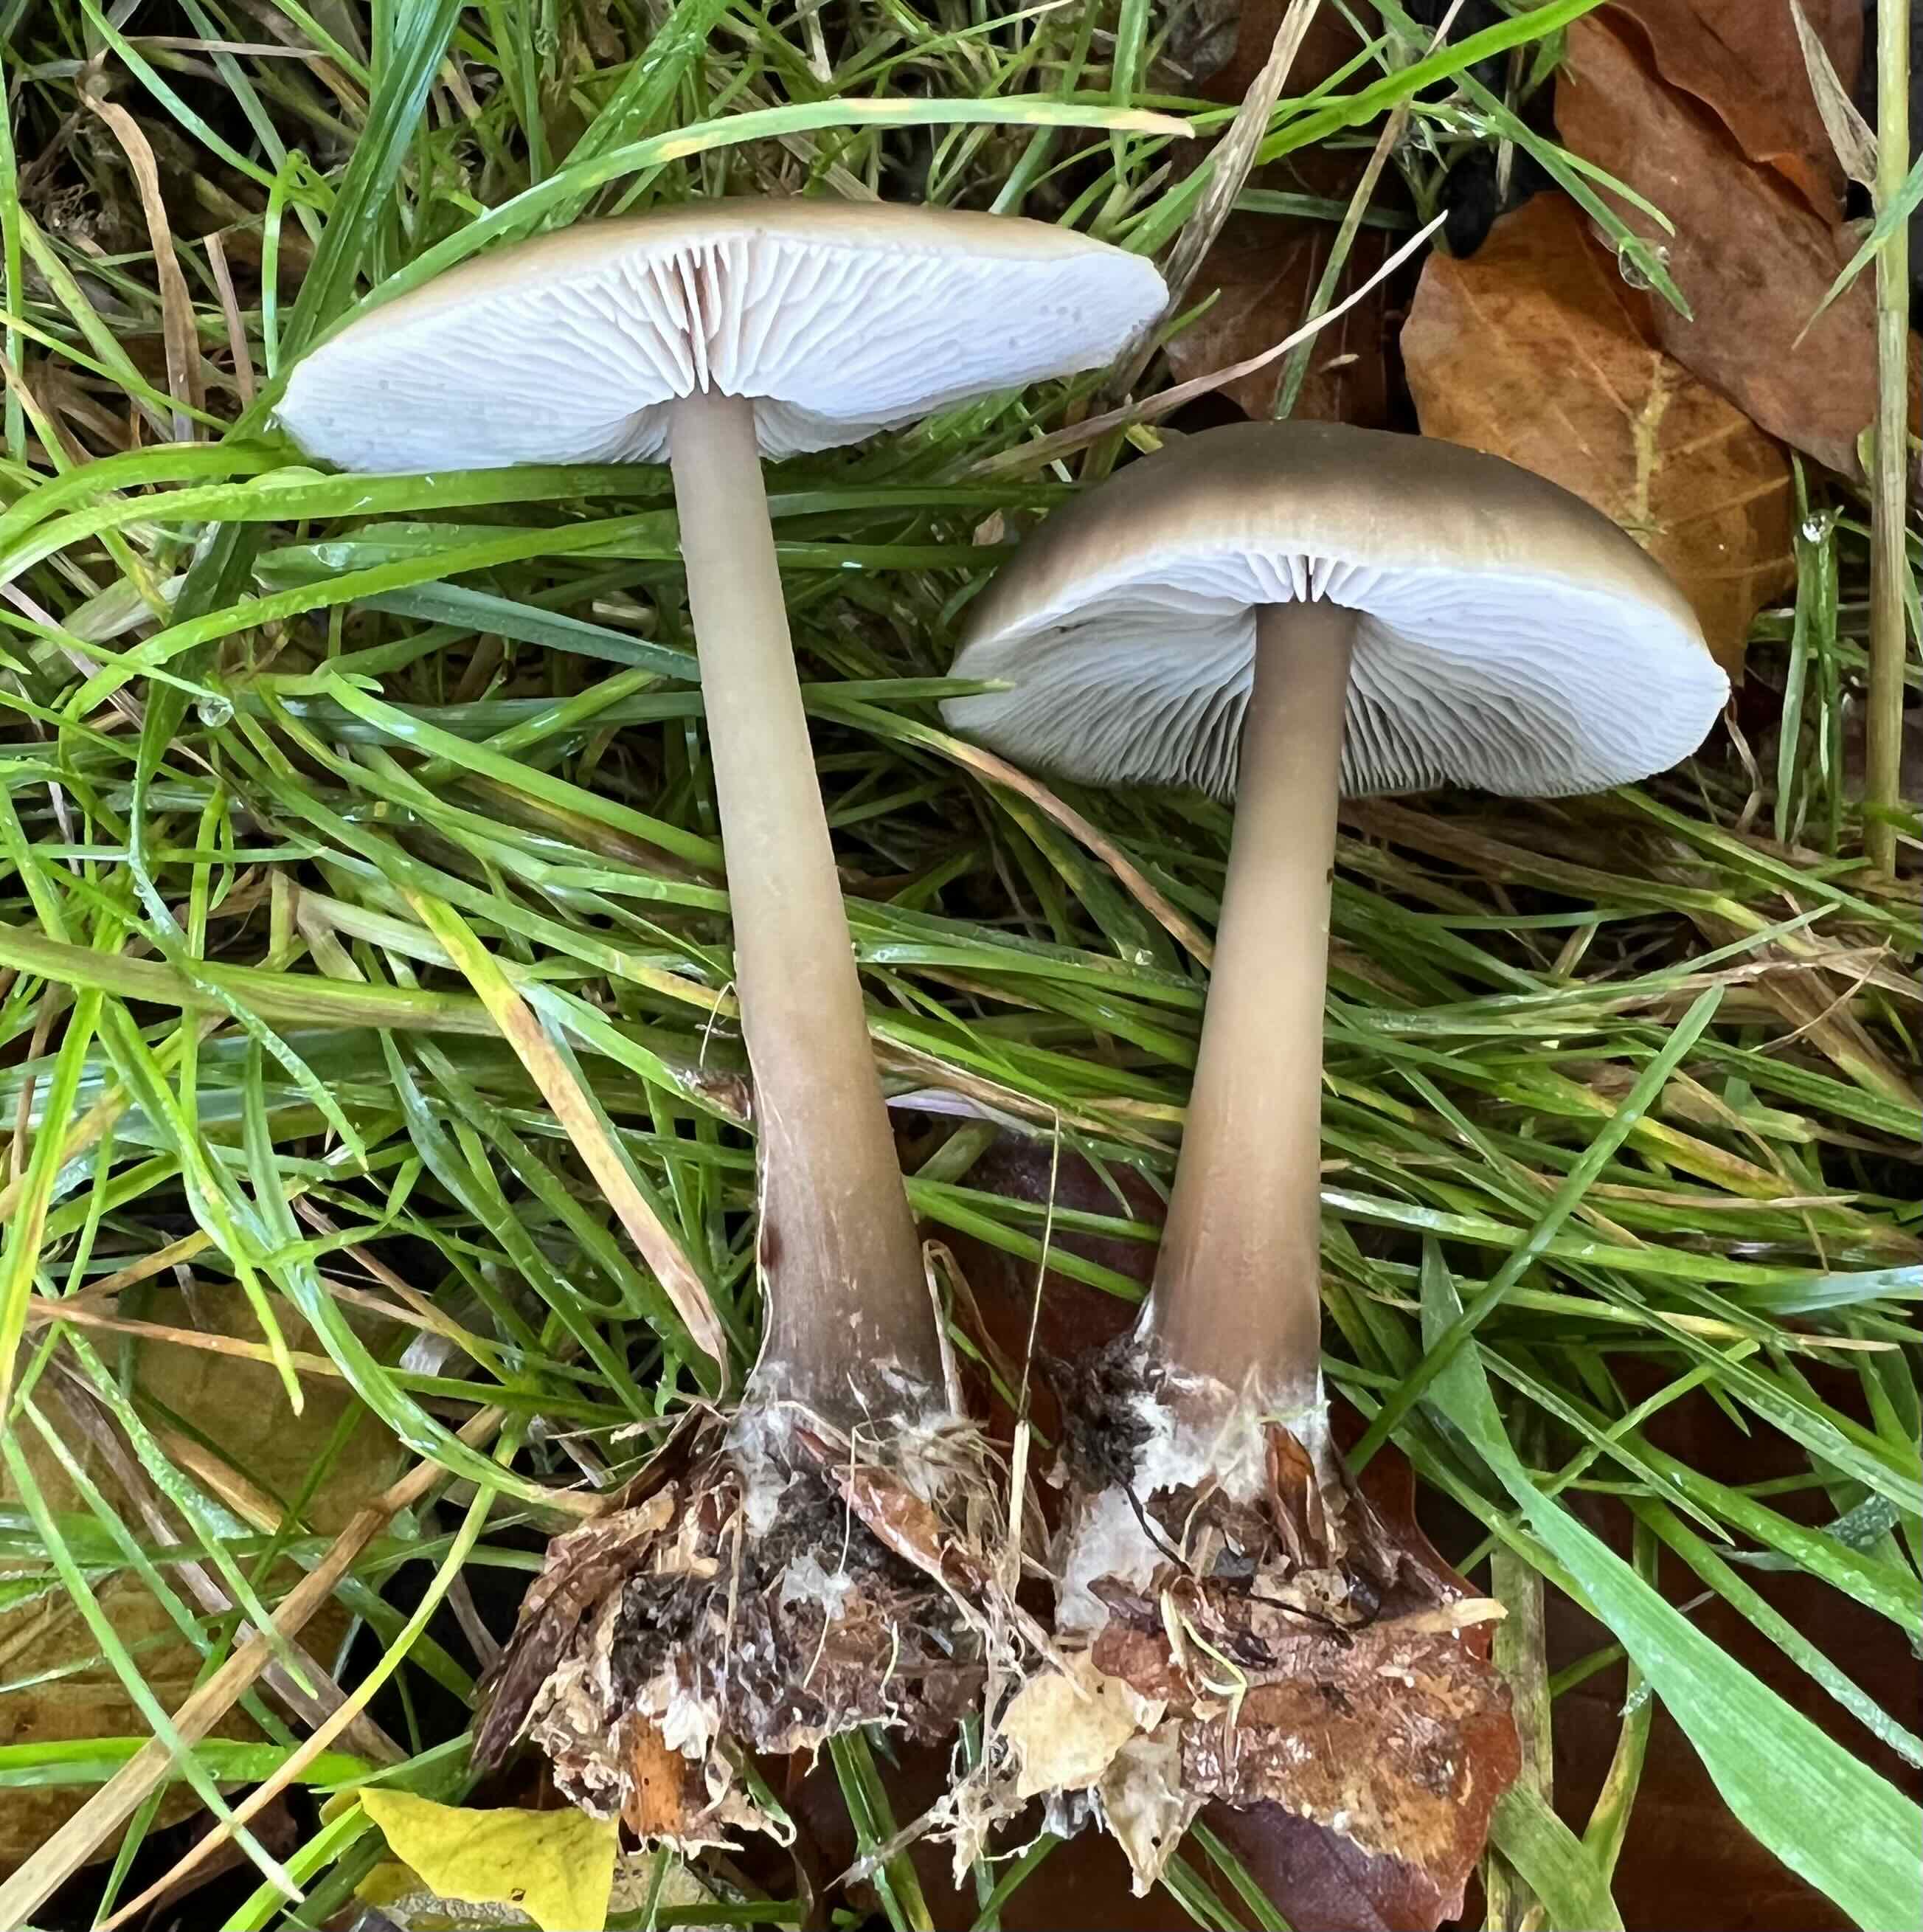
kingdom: Fungi
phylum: Basidiomycota
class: Agaricomycetes
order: Agaricales
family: Omphalotaceae
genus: Rhodocollybia
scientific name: Rhodocollybia asema
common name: horngrå fladhat
